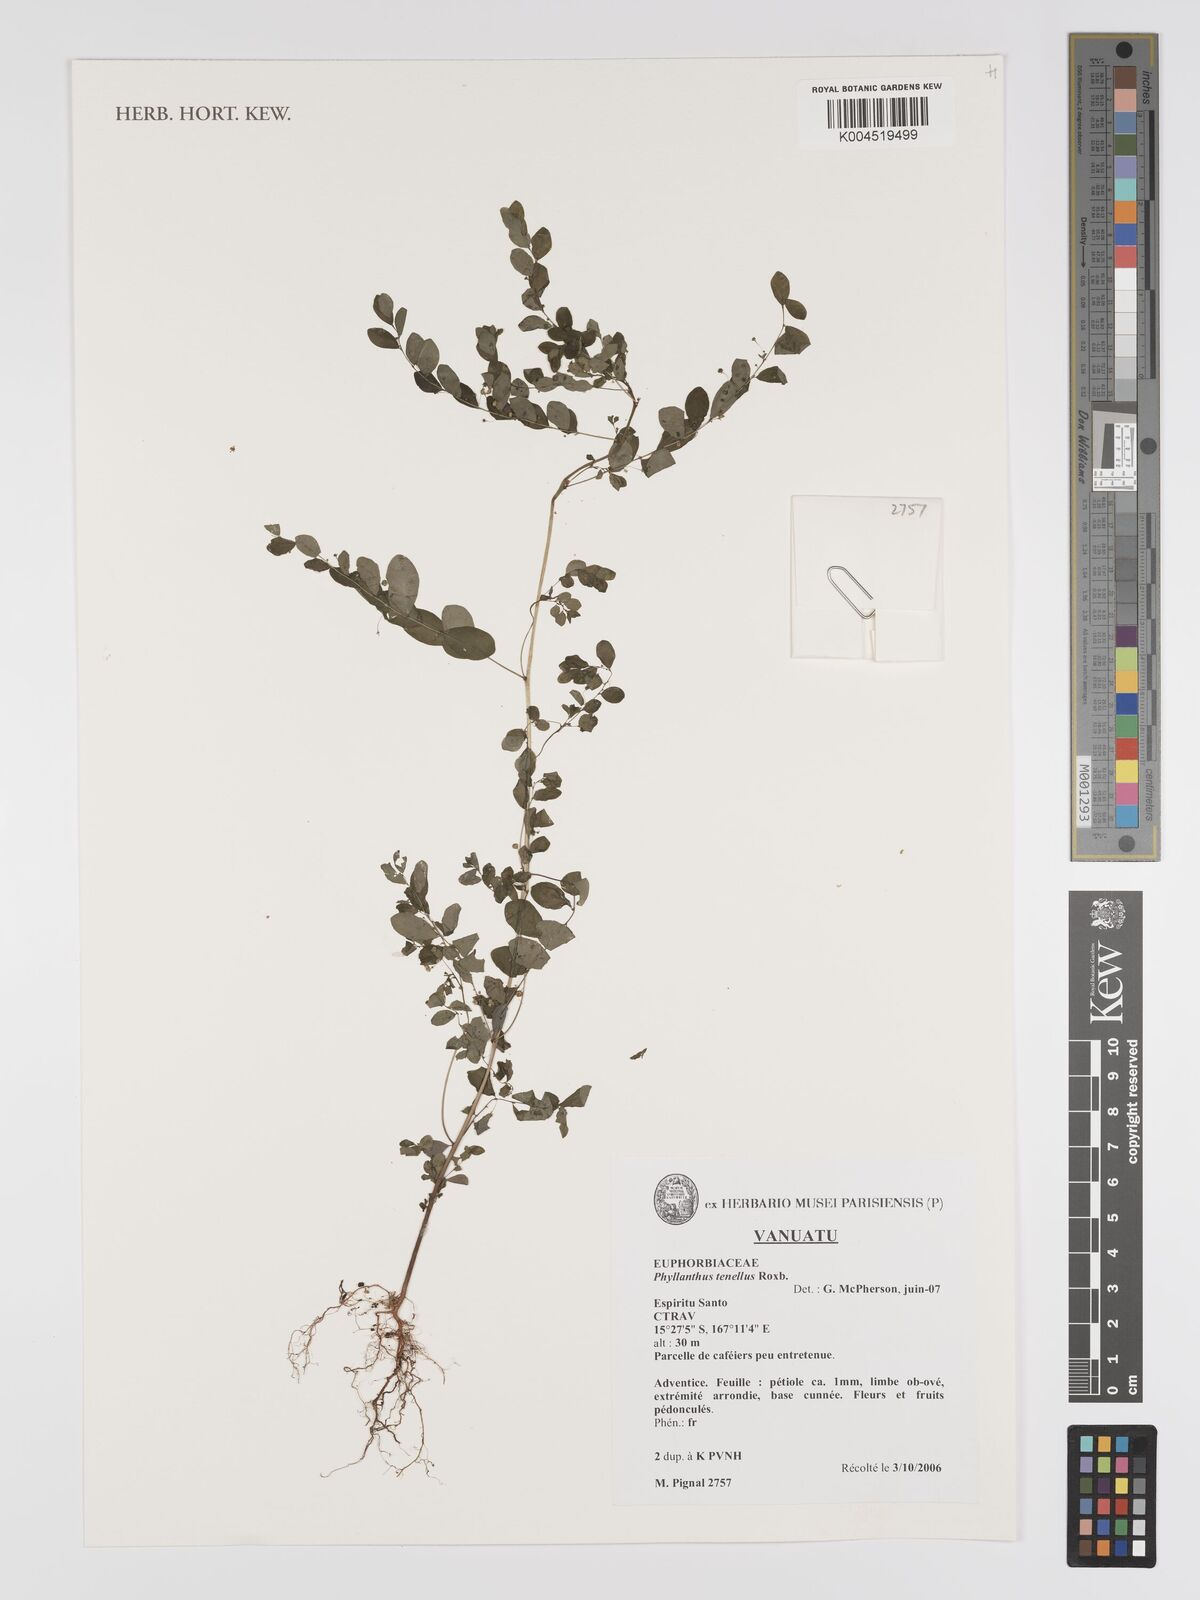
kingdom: Plantae
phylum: Tracheophyta
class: Magnoliopsida
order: Malpighiales
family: Phyllanthaceae
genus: Phyllanthus
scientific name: Phyllanthus
